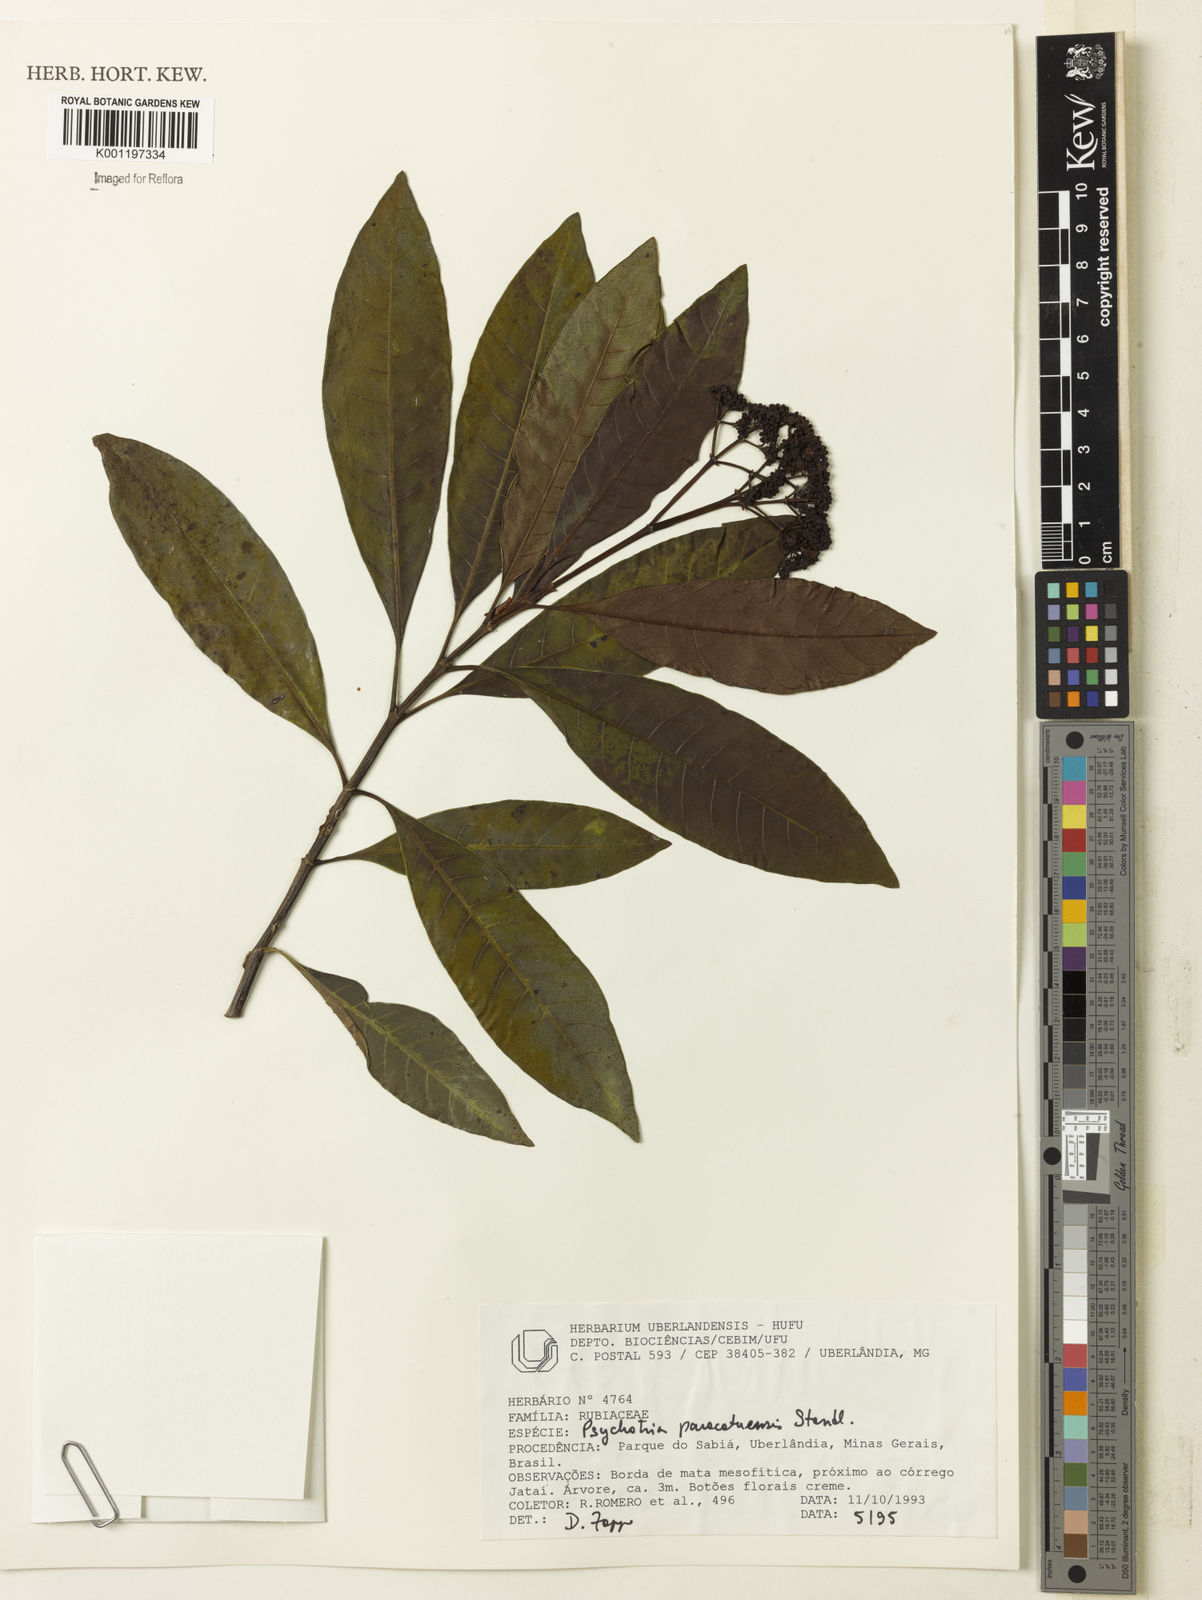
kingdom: Plantae
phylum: Tracheophyta
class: Magnoliopsida
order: Gentianales
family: Rubiaceae
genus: Psychotria
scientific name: Psychotria anceps
